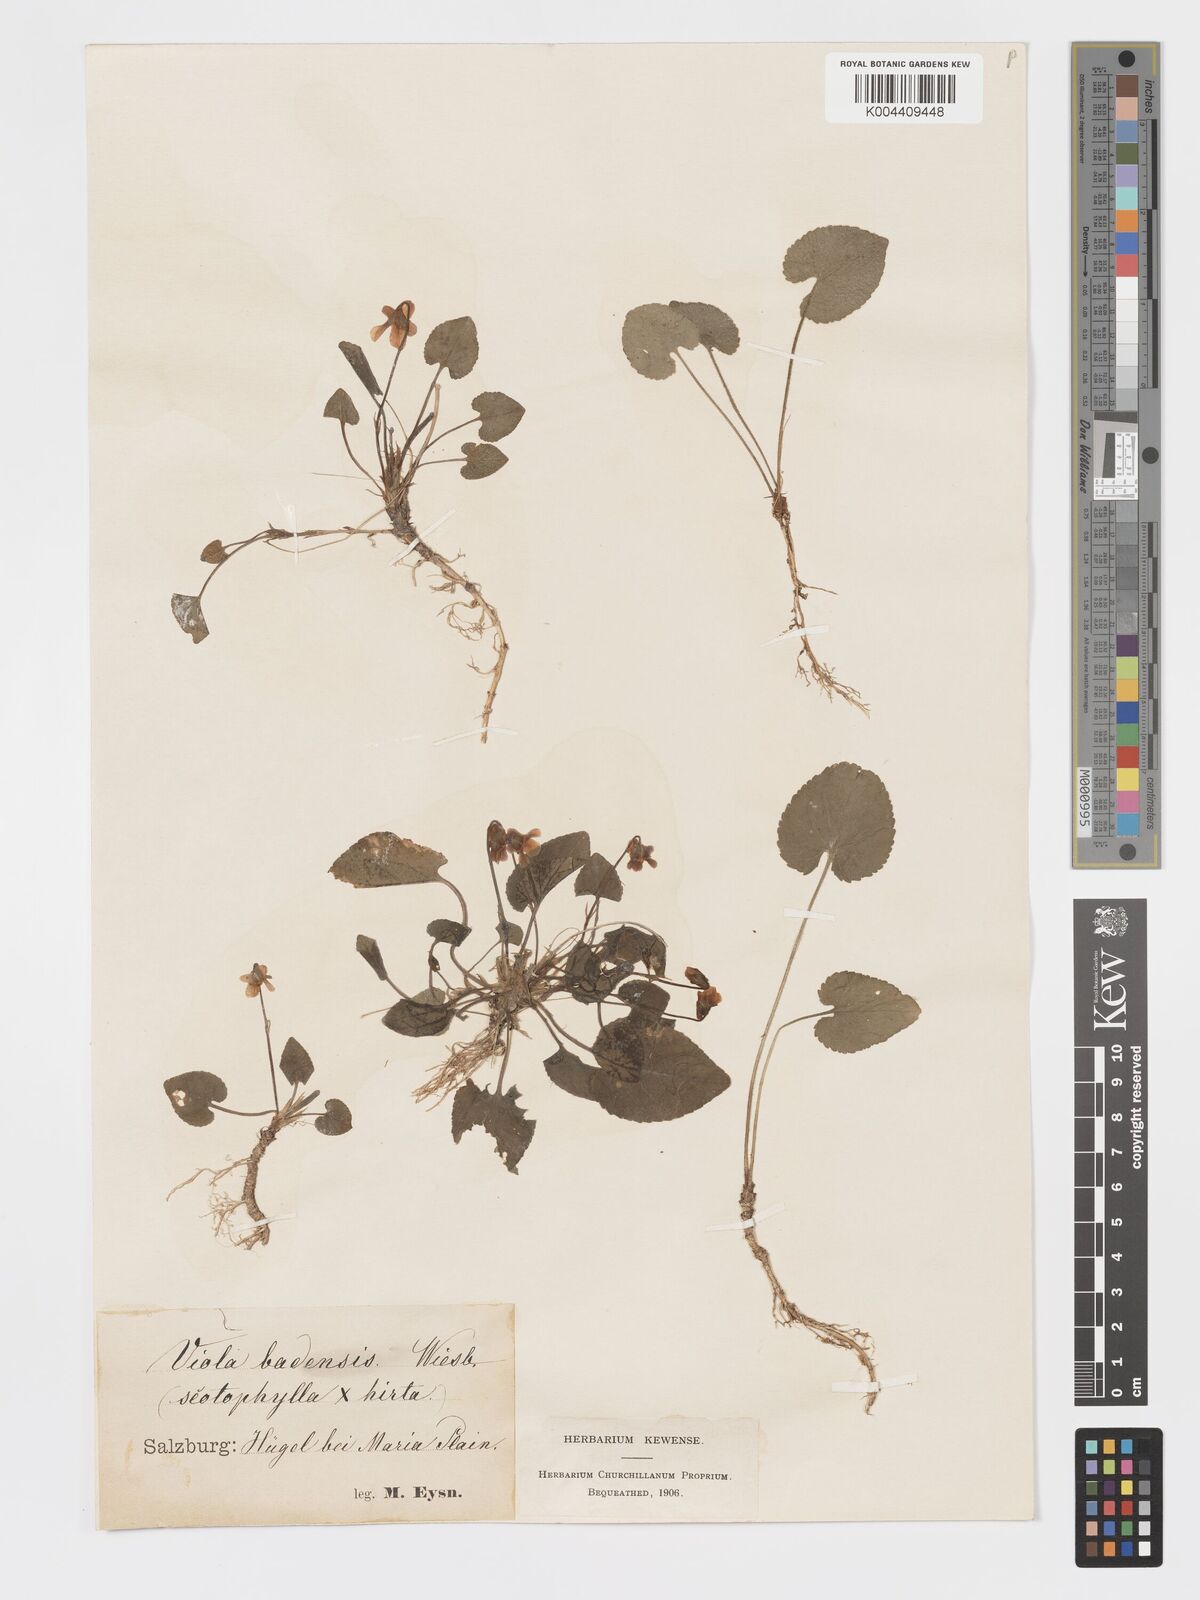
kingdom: Plantae
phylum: Tracheophyta
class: Magnoliopsida
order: Malpighiales
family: Violaceae
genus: Viola
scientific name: Viola alba
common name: White violet
